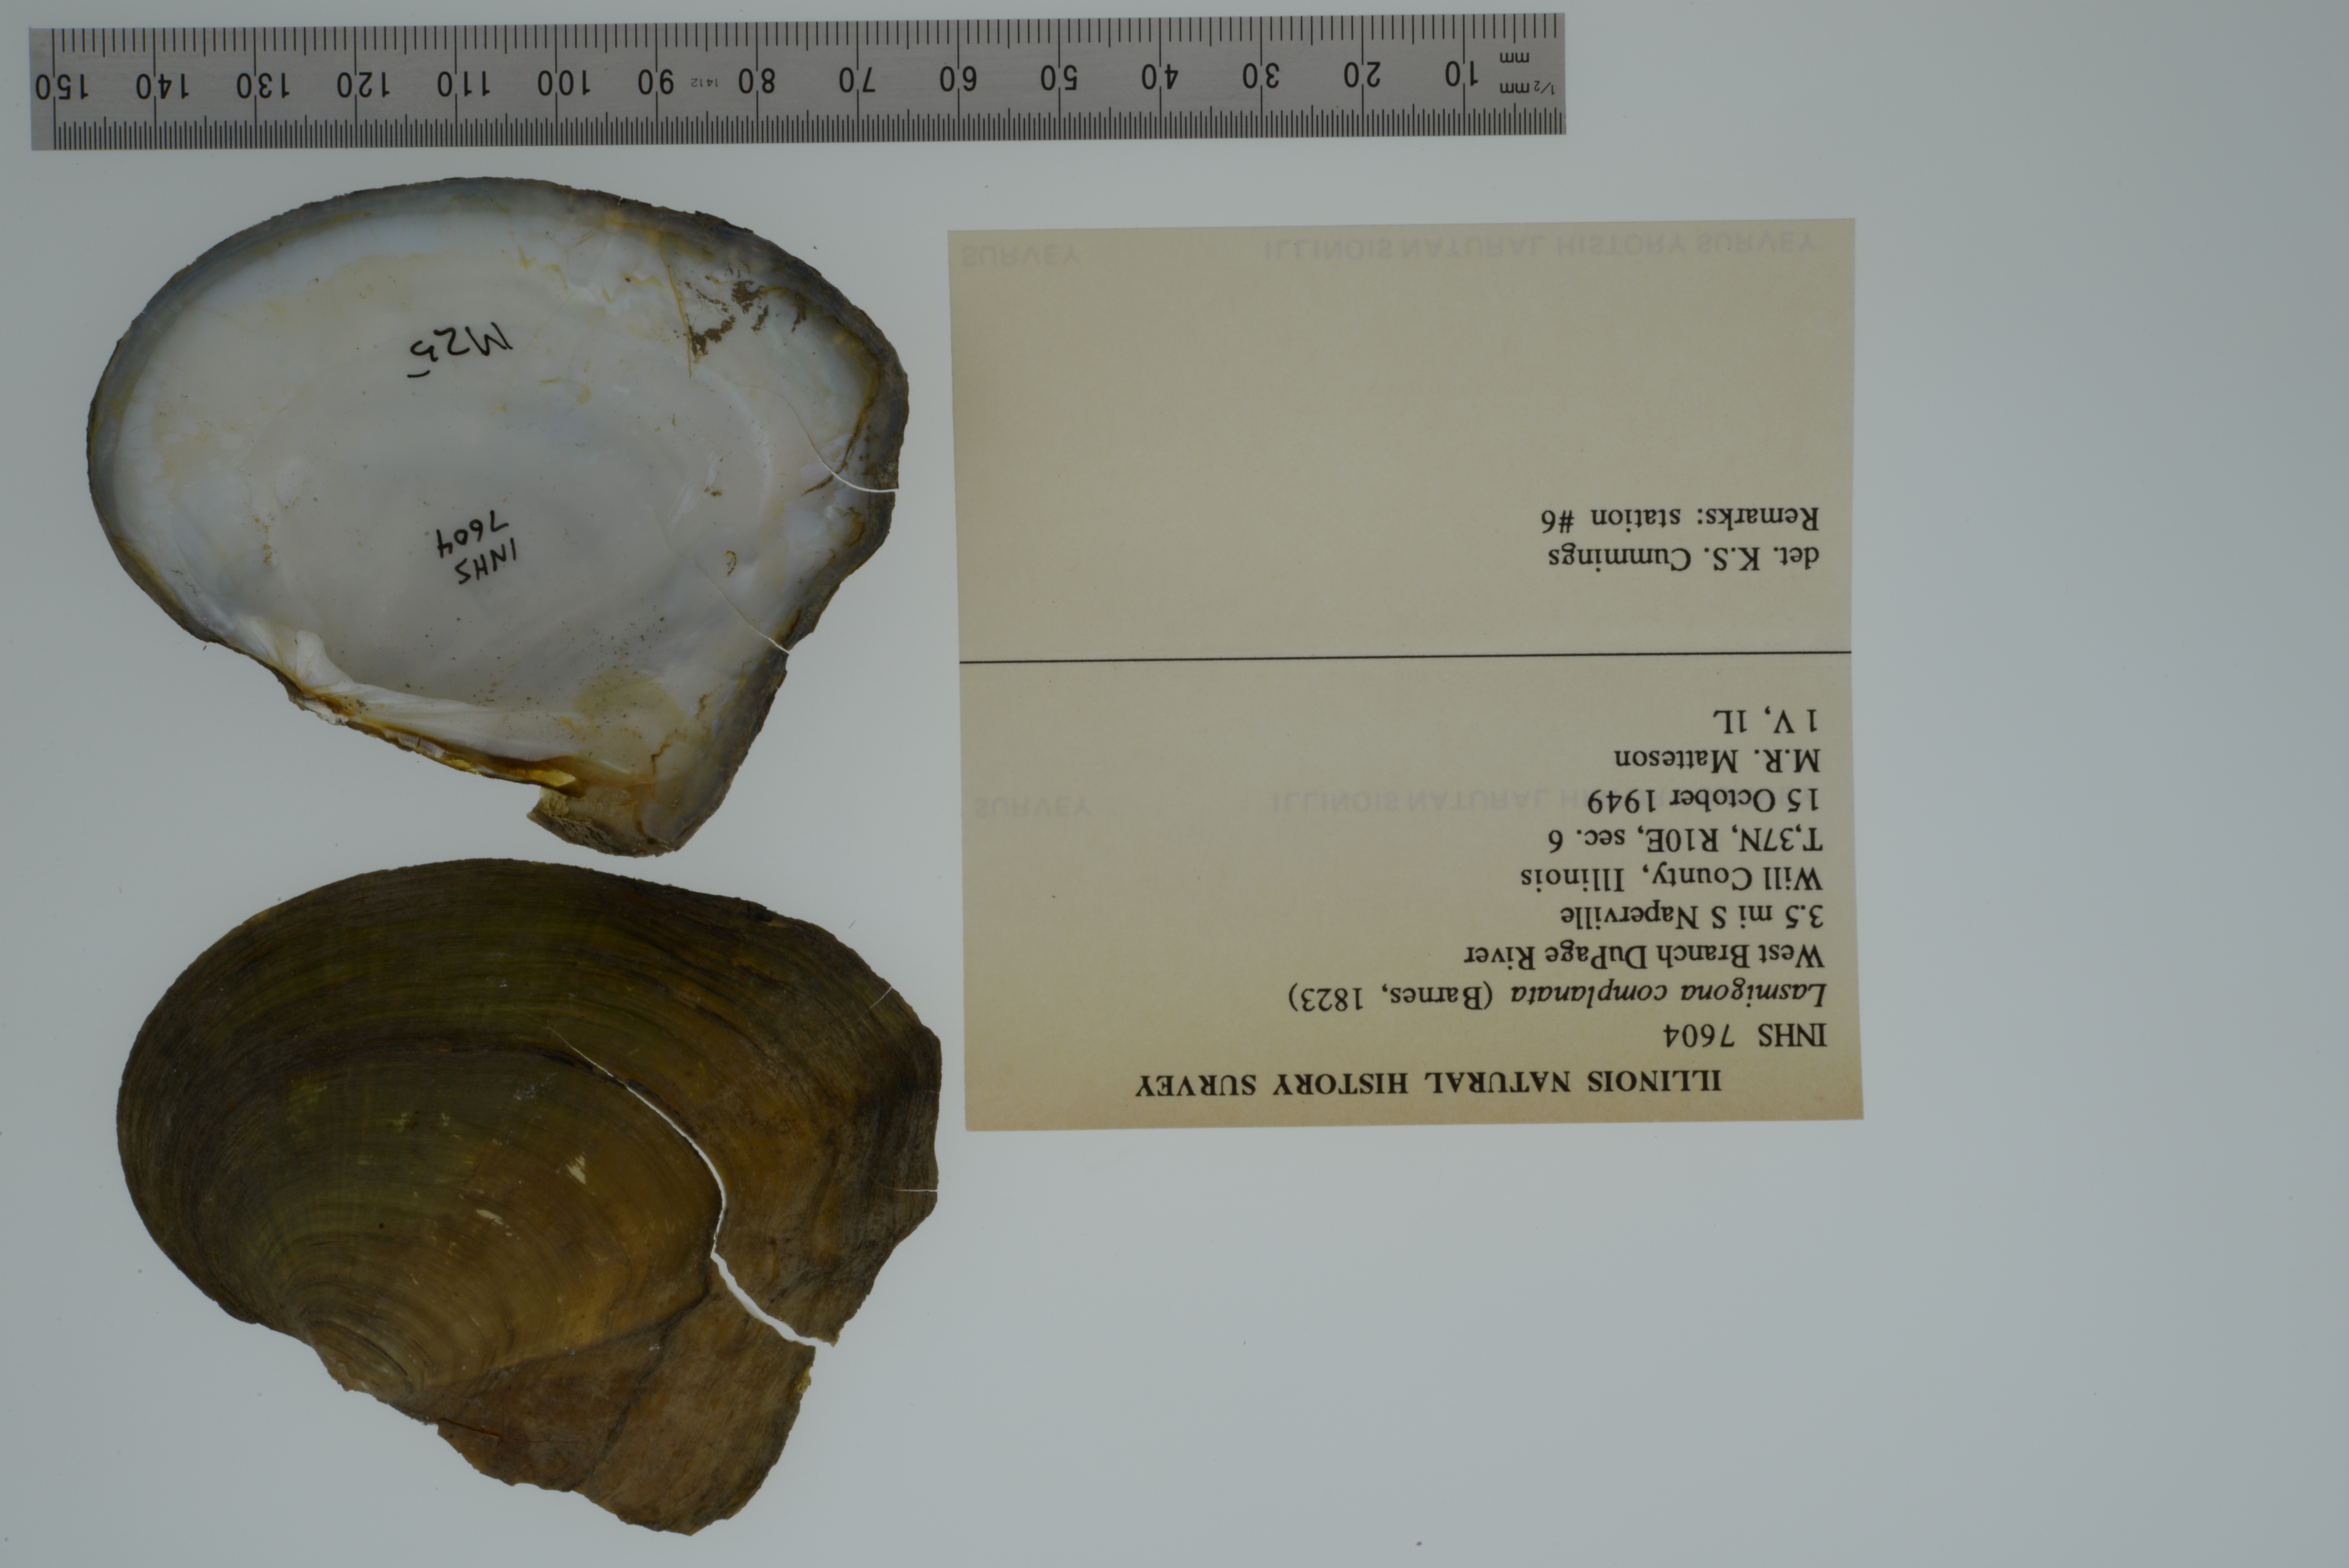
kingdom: Animalia
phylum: Mollusca
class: Bivalvia
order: Unionida
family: Unionidae
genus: Lasmigona
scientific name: Lasmigona complanata
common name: White heelsplitter
